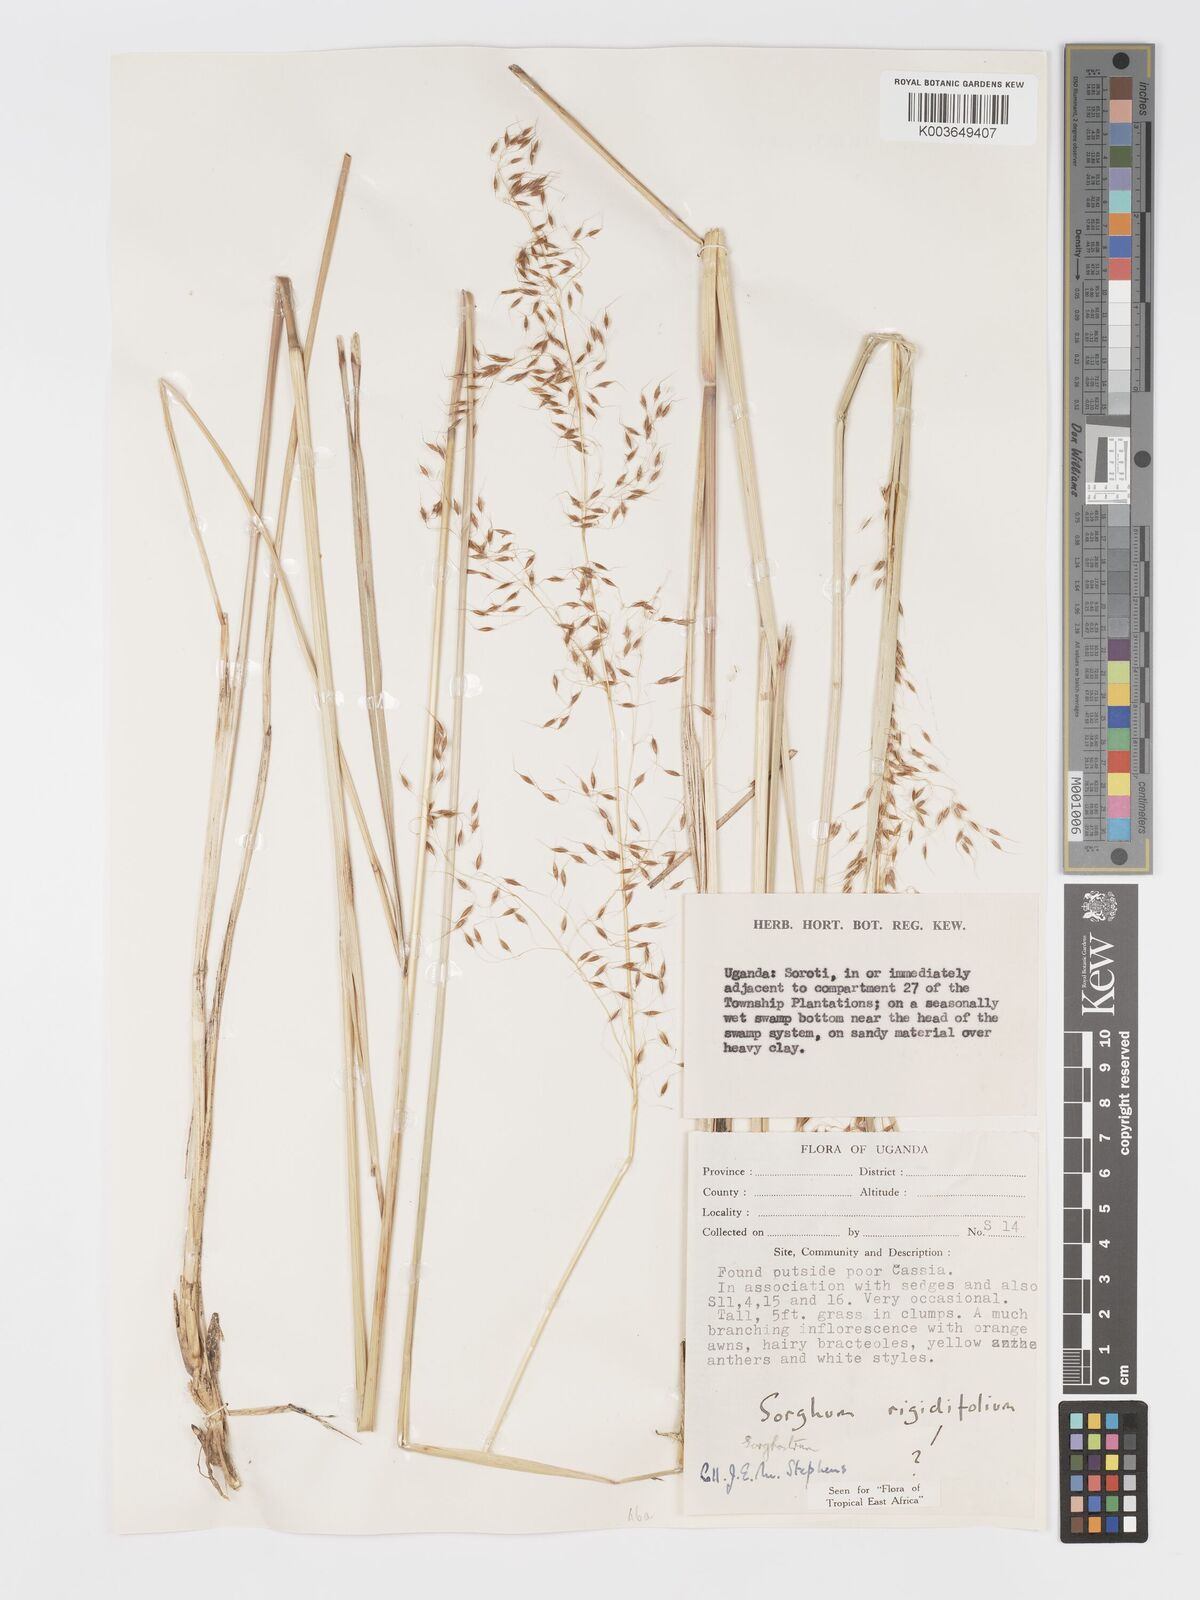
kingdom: Plantae
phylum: Tracheophyta
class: Liliopsida
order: Poales
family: Poaceae
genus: Sorghastrum
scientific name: Sorghastrum stipoides
